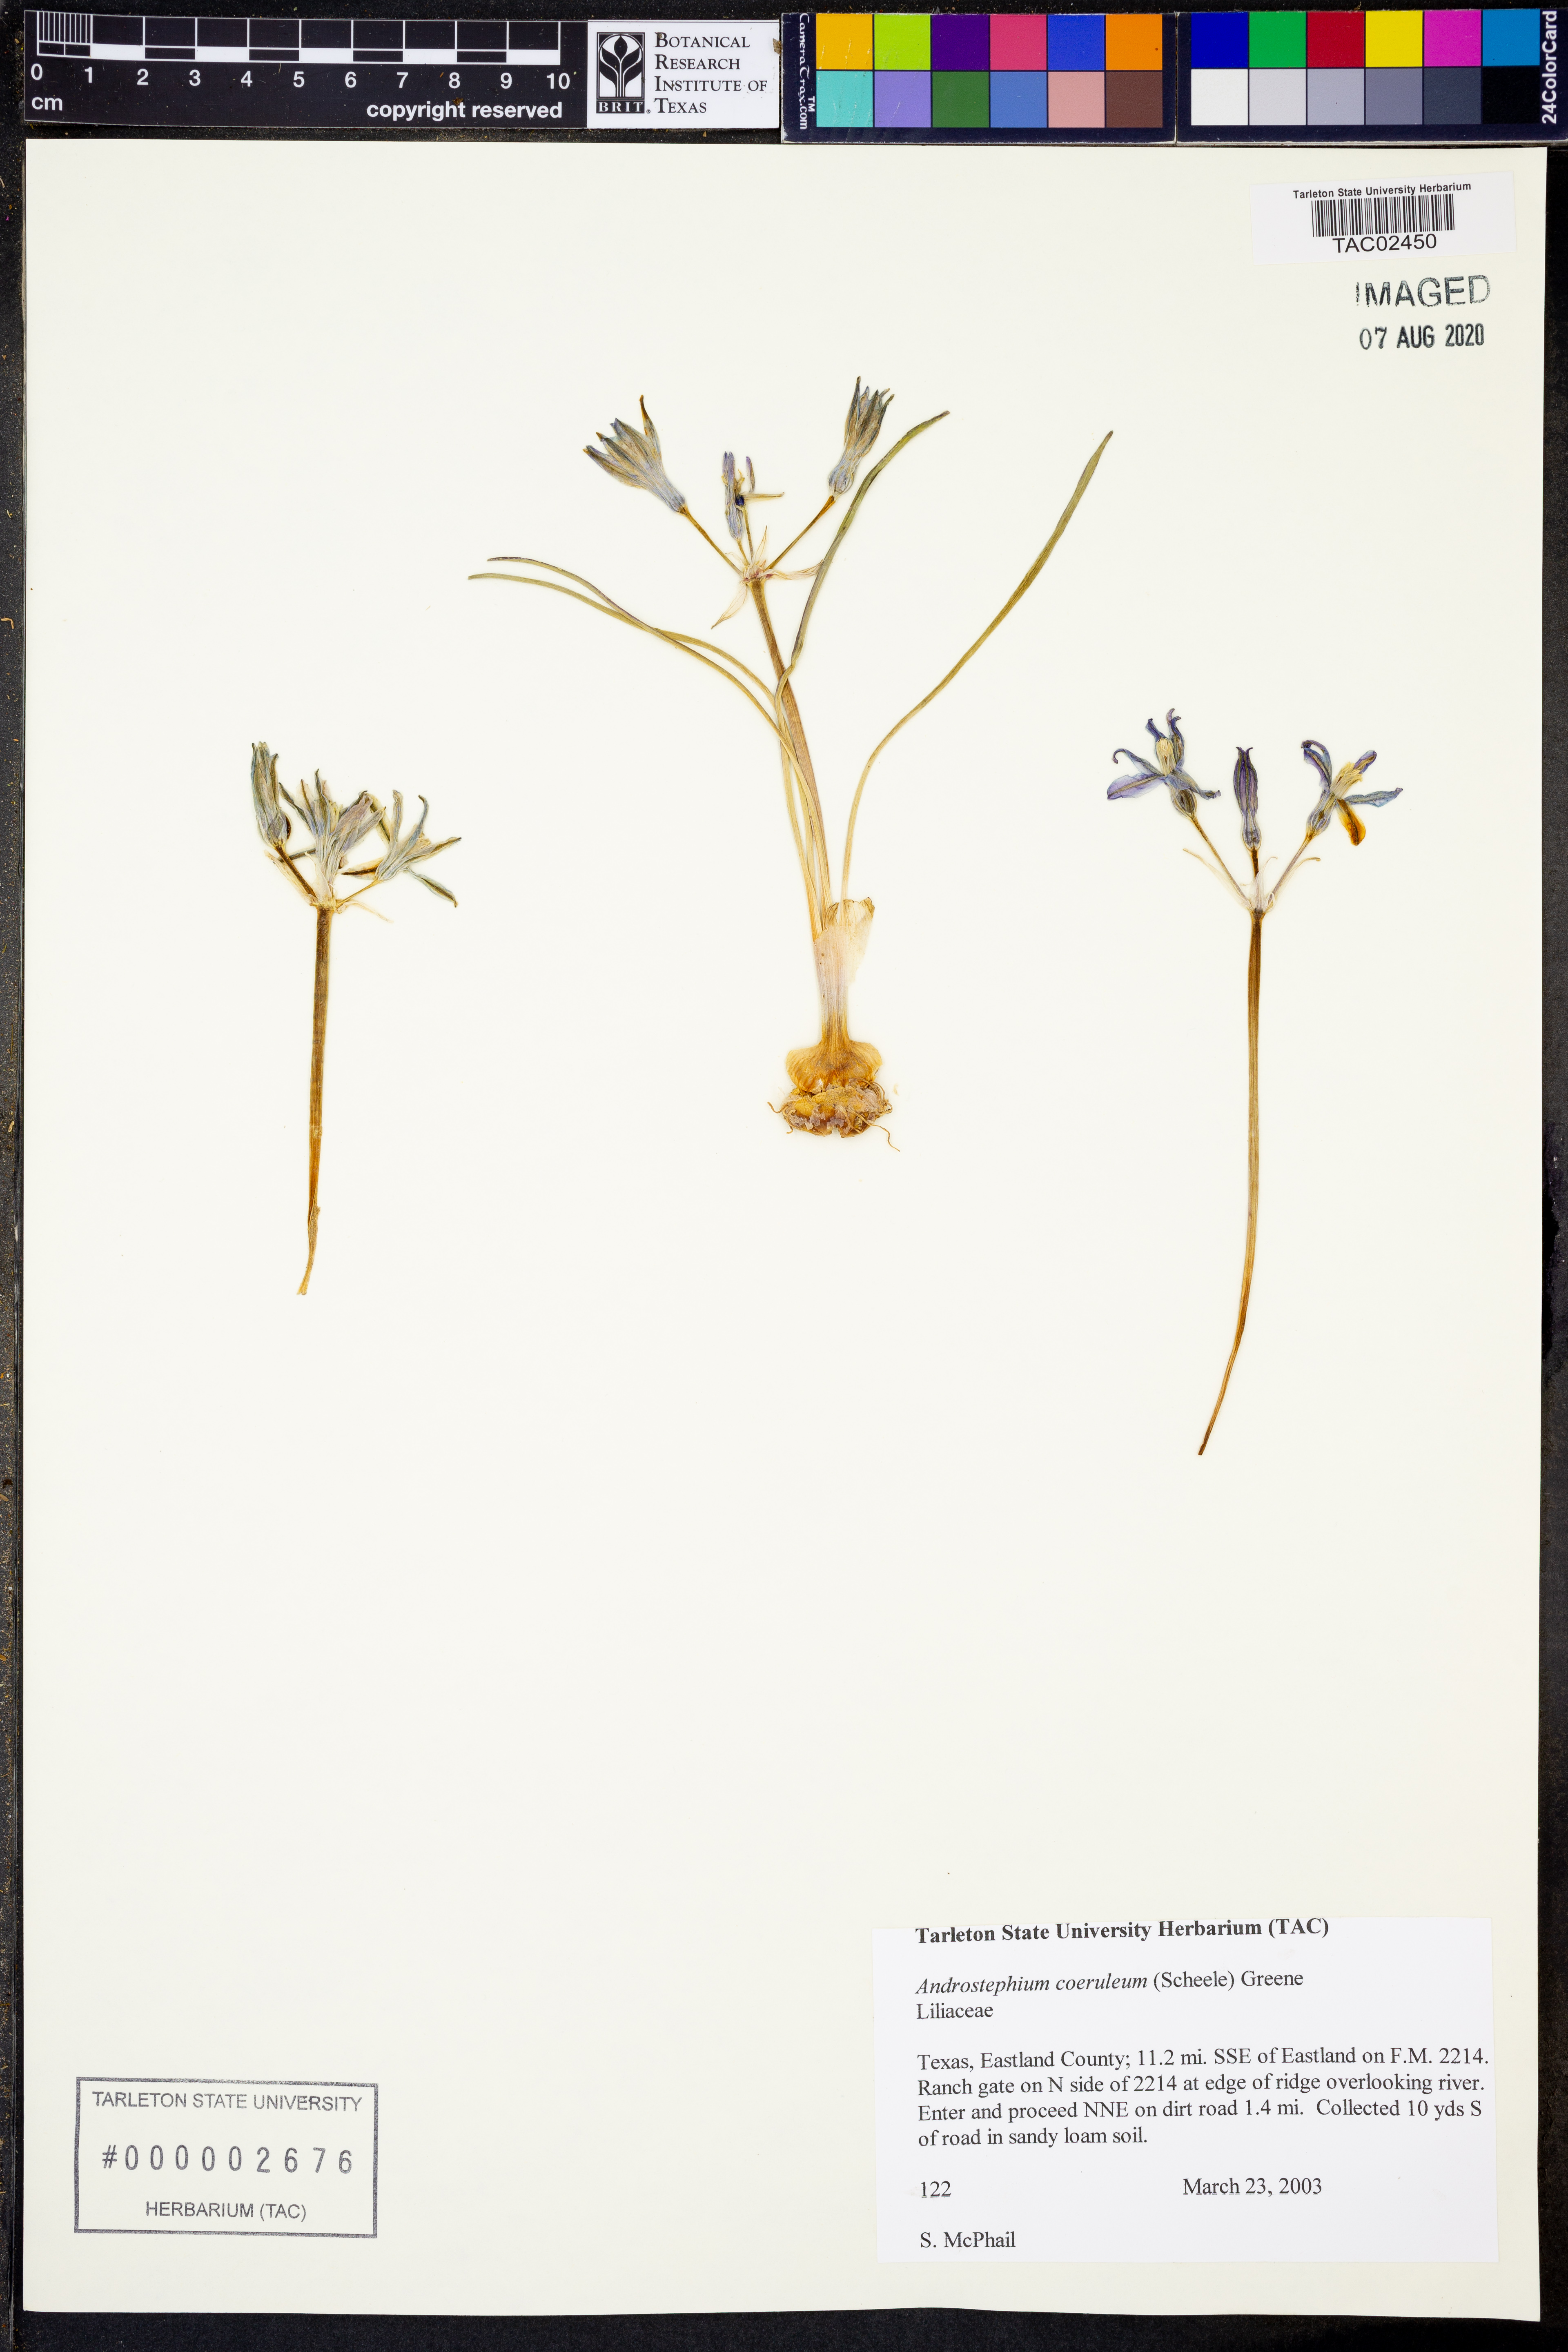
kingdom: Plantae
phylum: Tracheophyta
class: Liliopsida
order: Asparagales
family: Asparagaceae
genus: Androstephium
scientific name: Androstephium coeruleum
